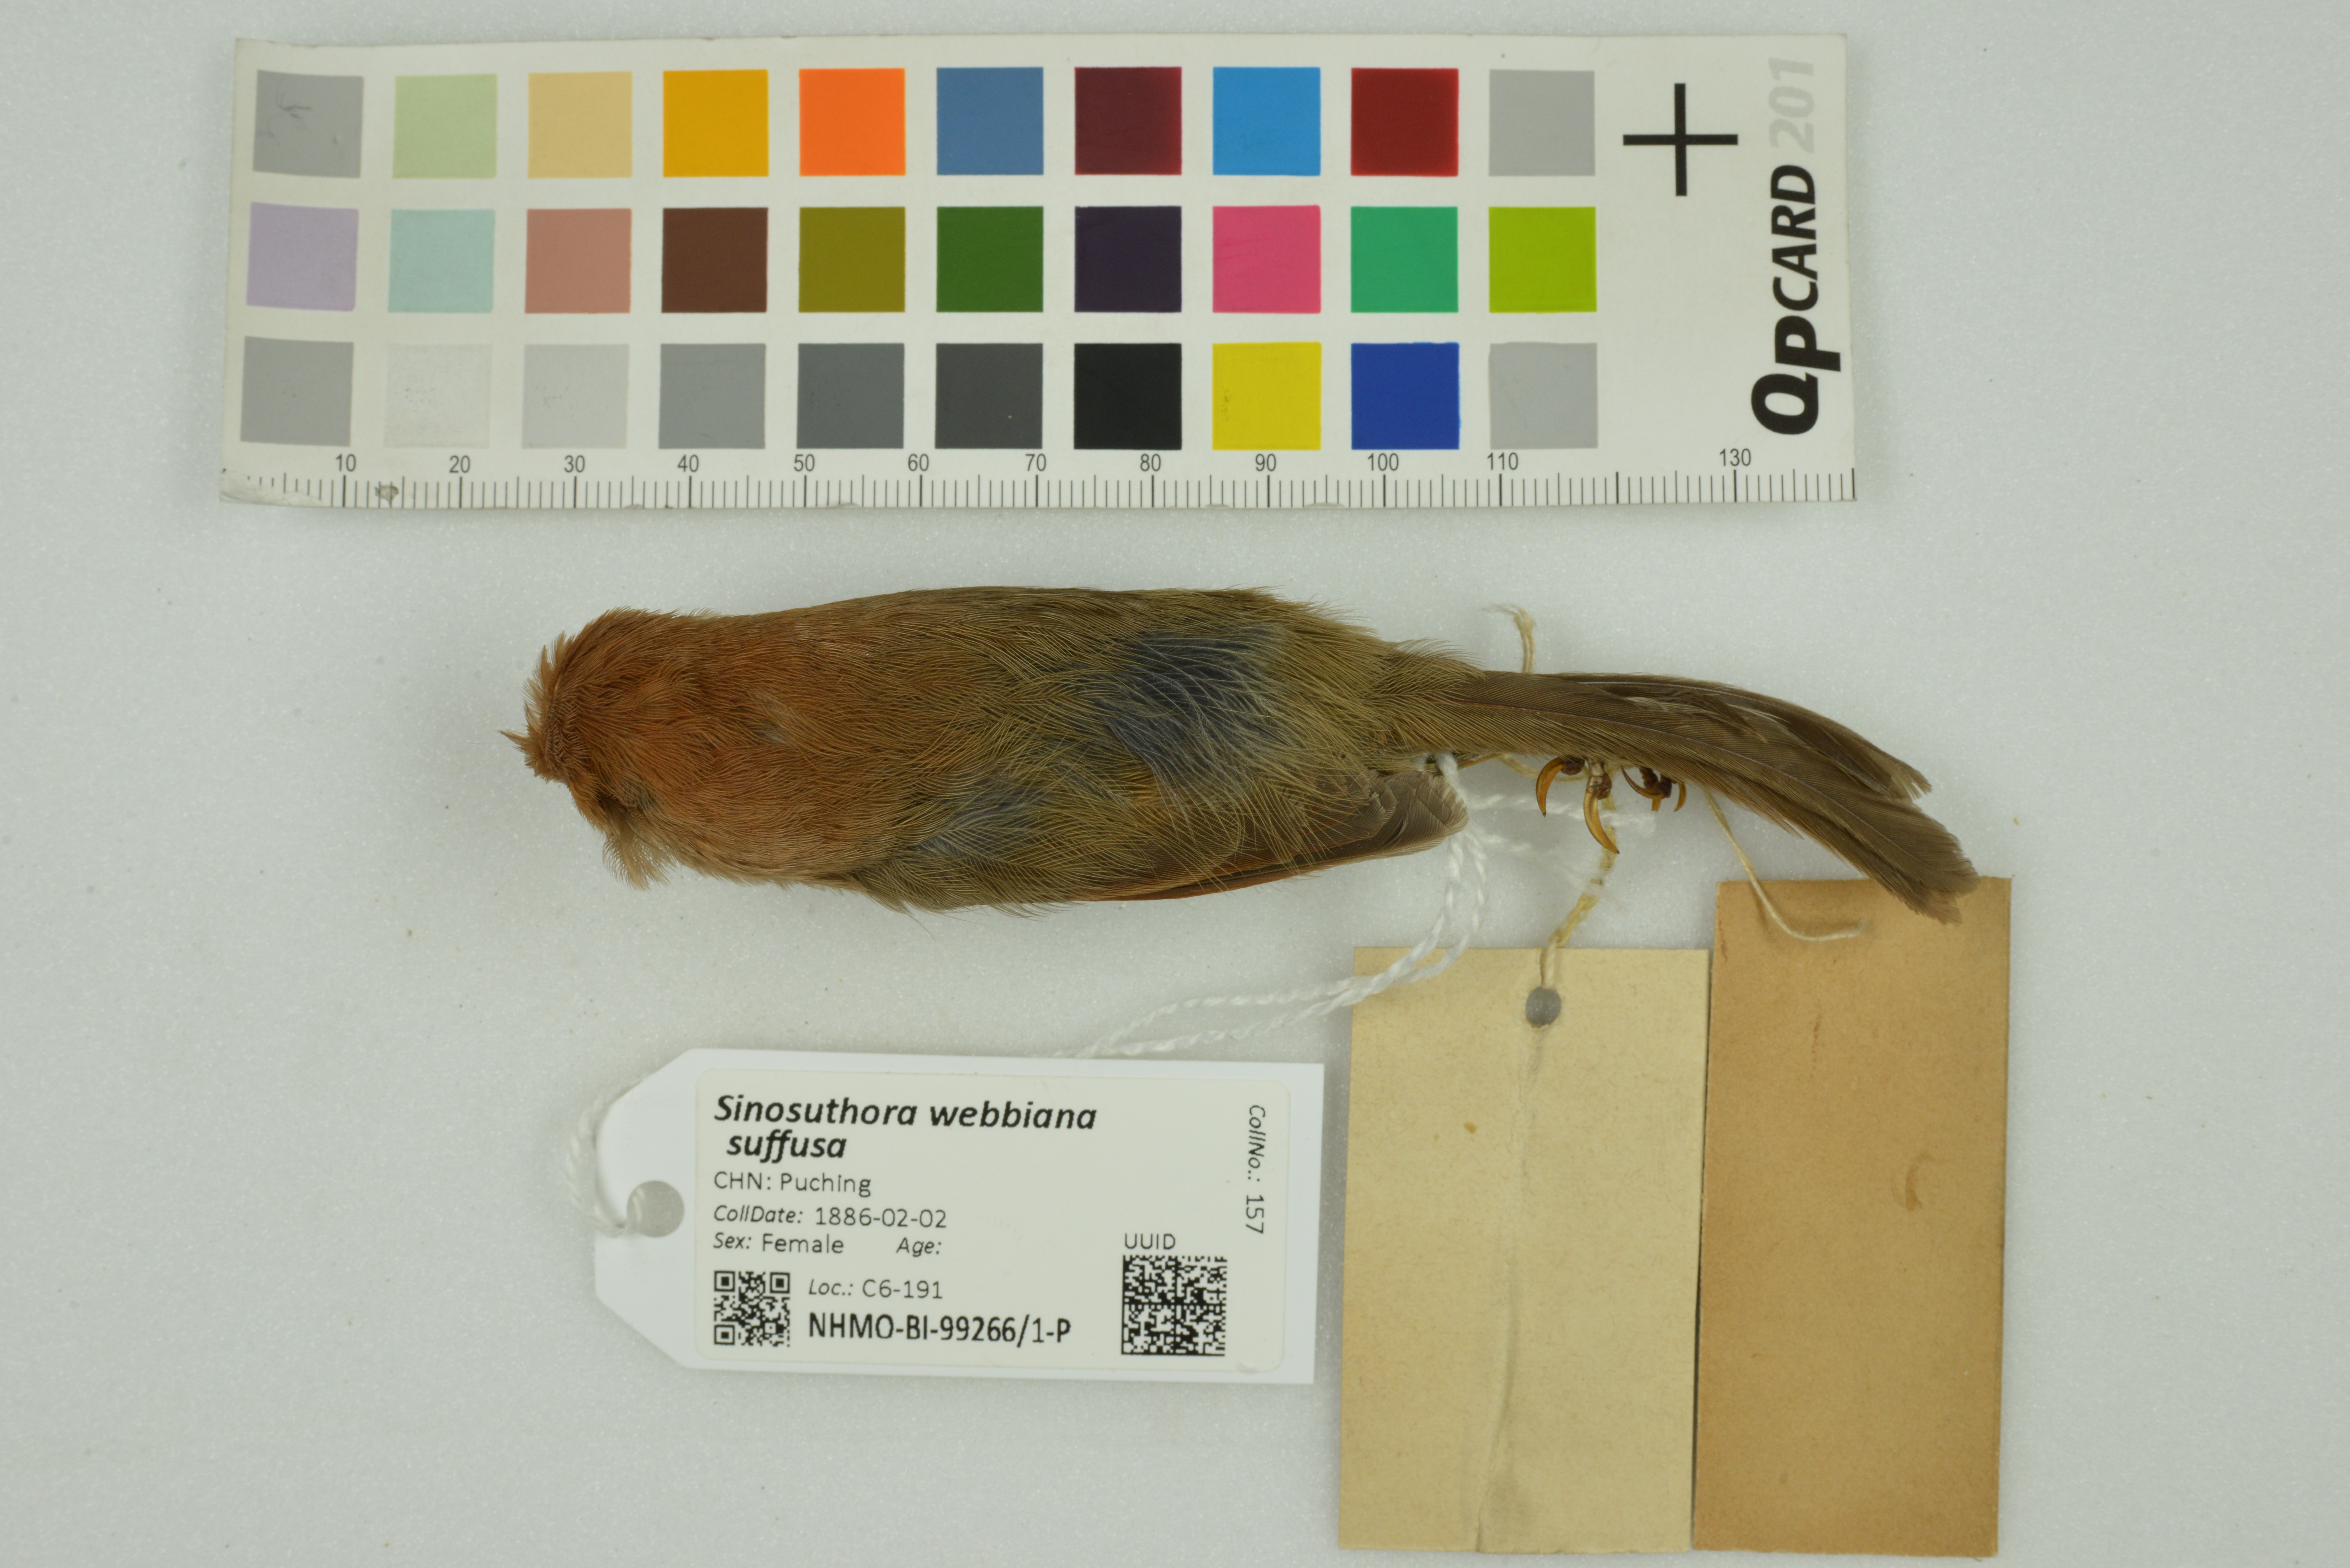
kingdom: Animalia
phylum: Chordata
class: Aves
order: Passeriformes
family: Sylviidae
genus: Sinosuthora
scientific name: Sinosuthora webbiana
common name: Vinous-throated parrotbill
